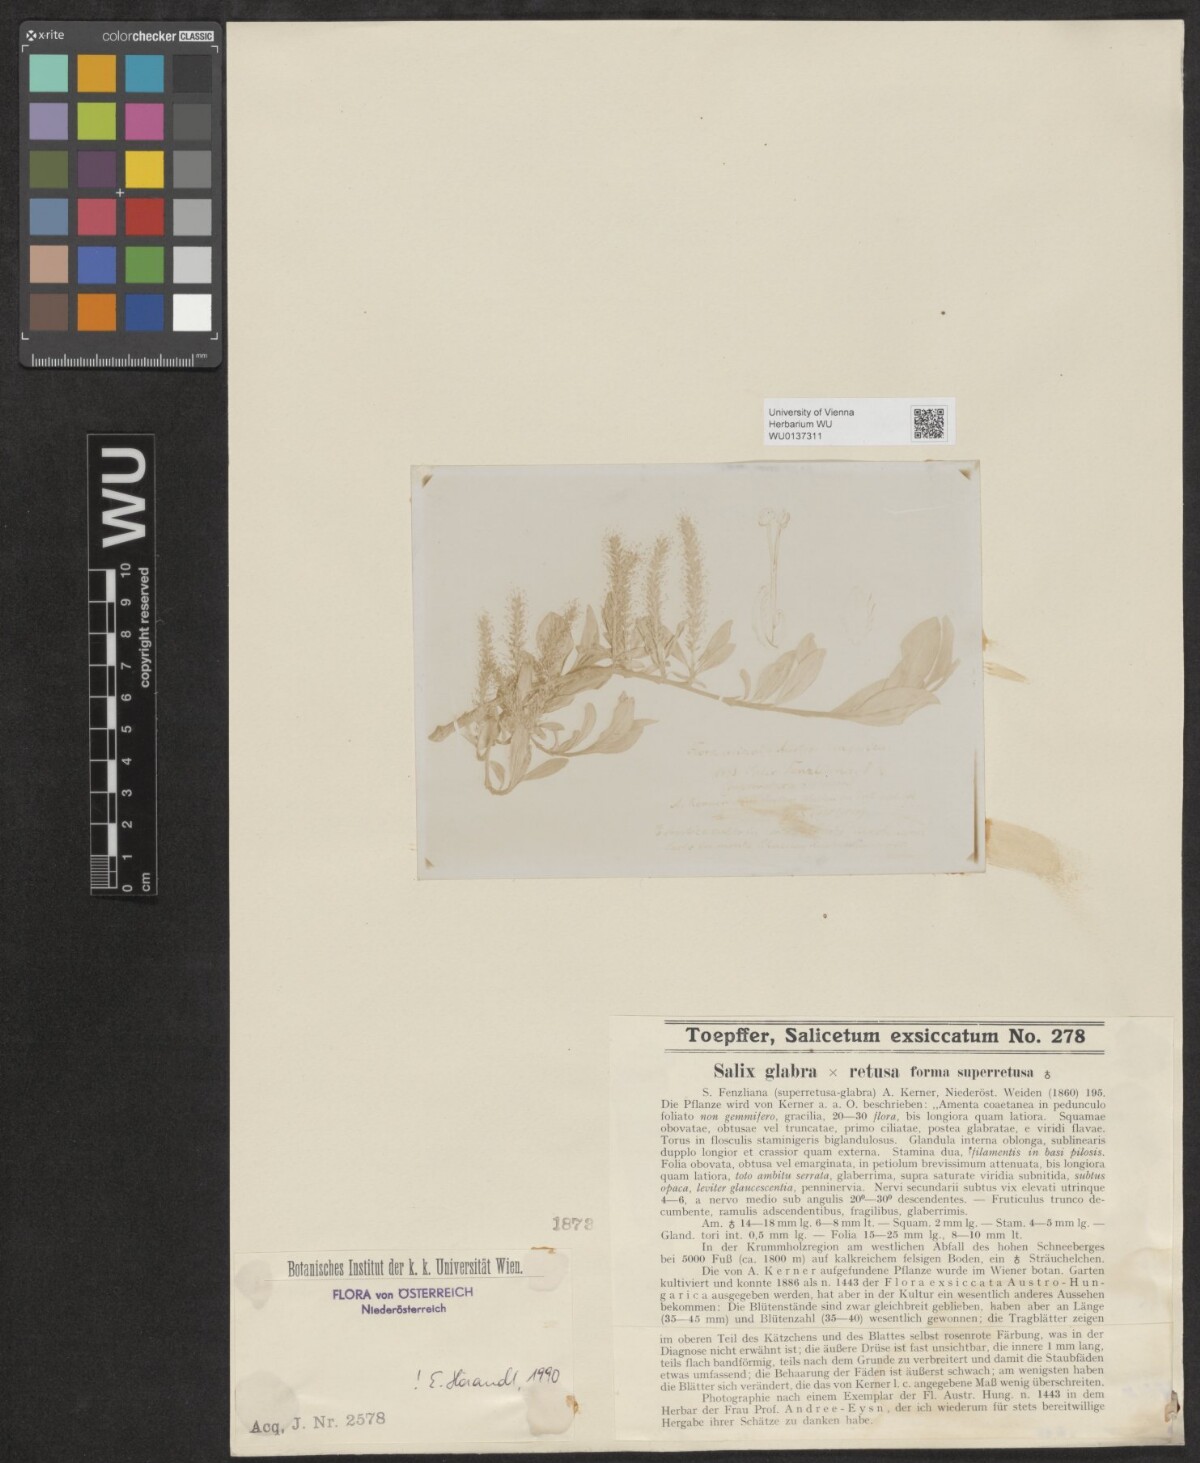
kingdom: Plantae
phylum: Tracheophyta
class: Magnoliopsida
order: Malpighiales
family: Salicaceae
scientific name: Salicaceae
